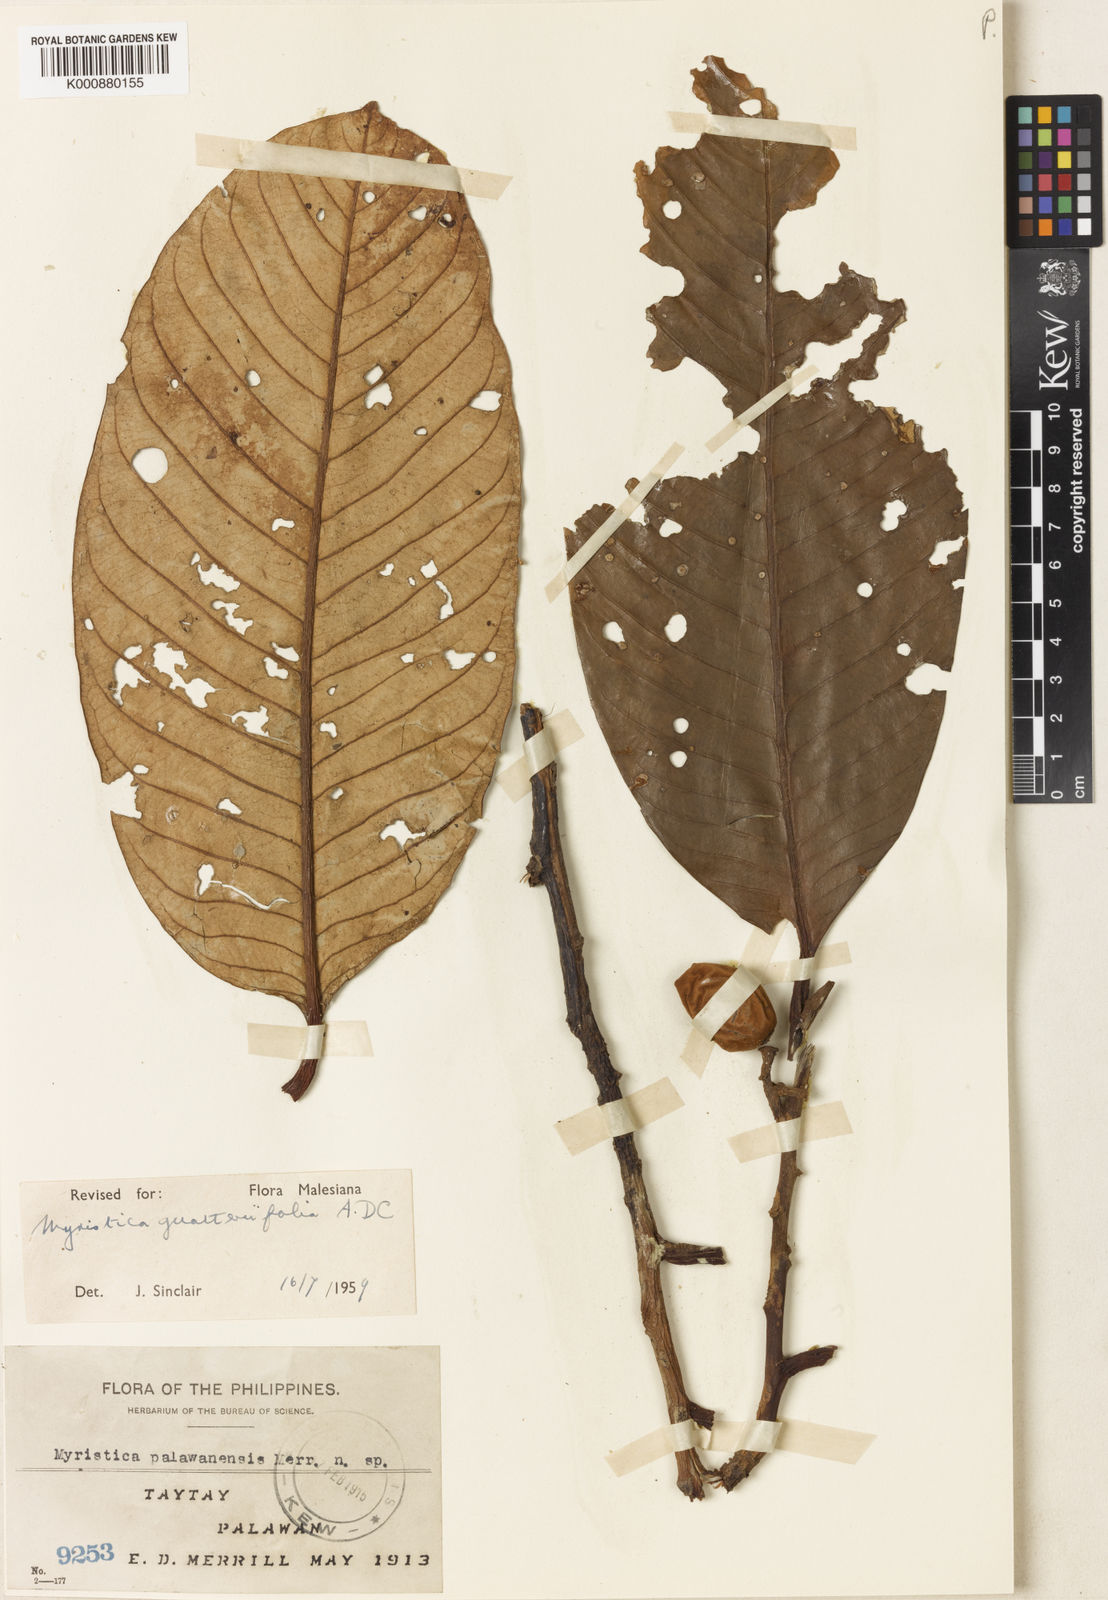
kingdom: Plantae
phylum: Tracheophyta
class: Magnoliopsida
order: Magnoliales
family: Myristicaceae
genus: Myristica
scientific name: Myristica guatteriifolia
